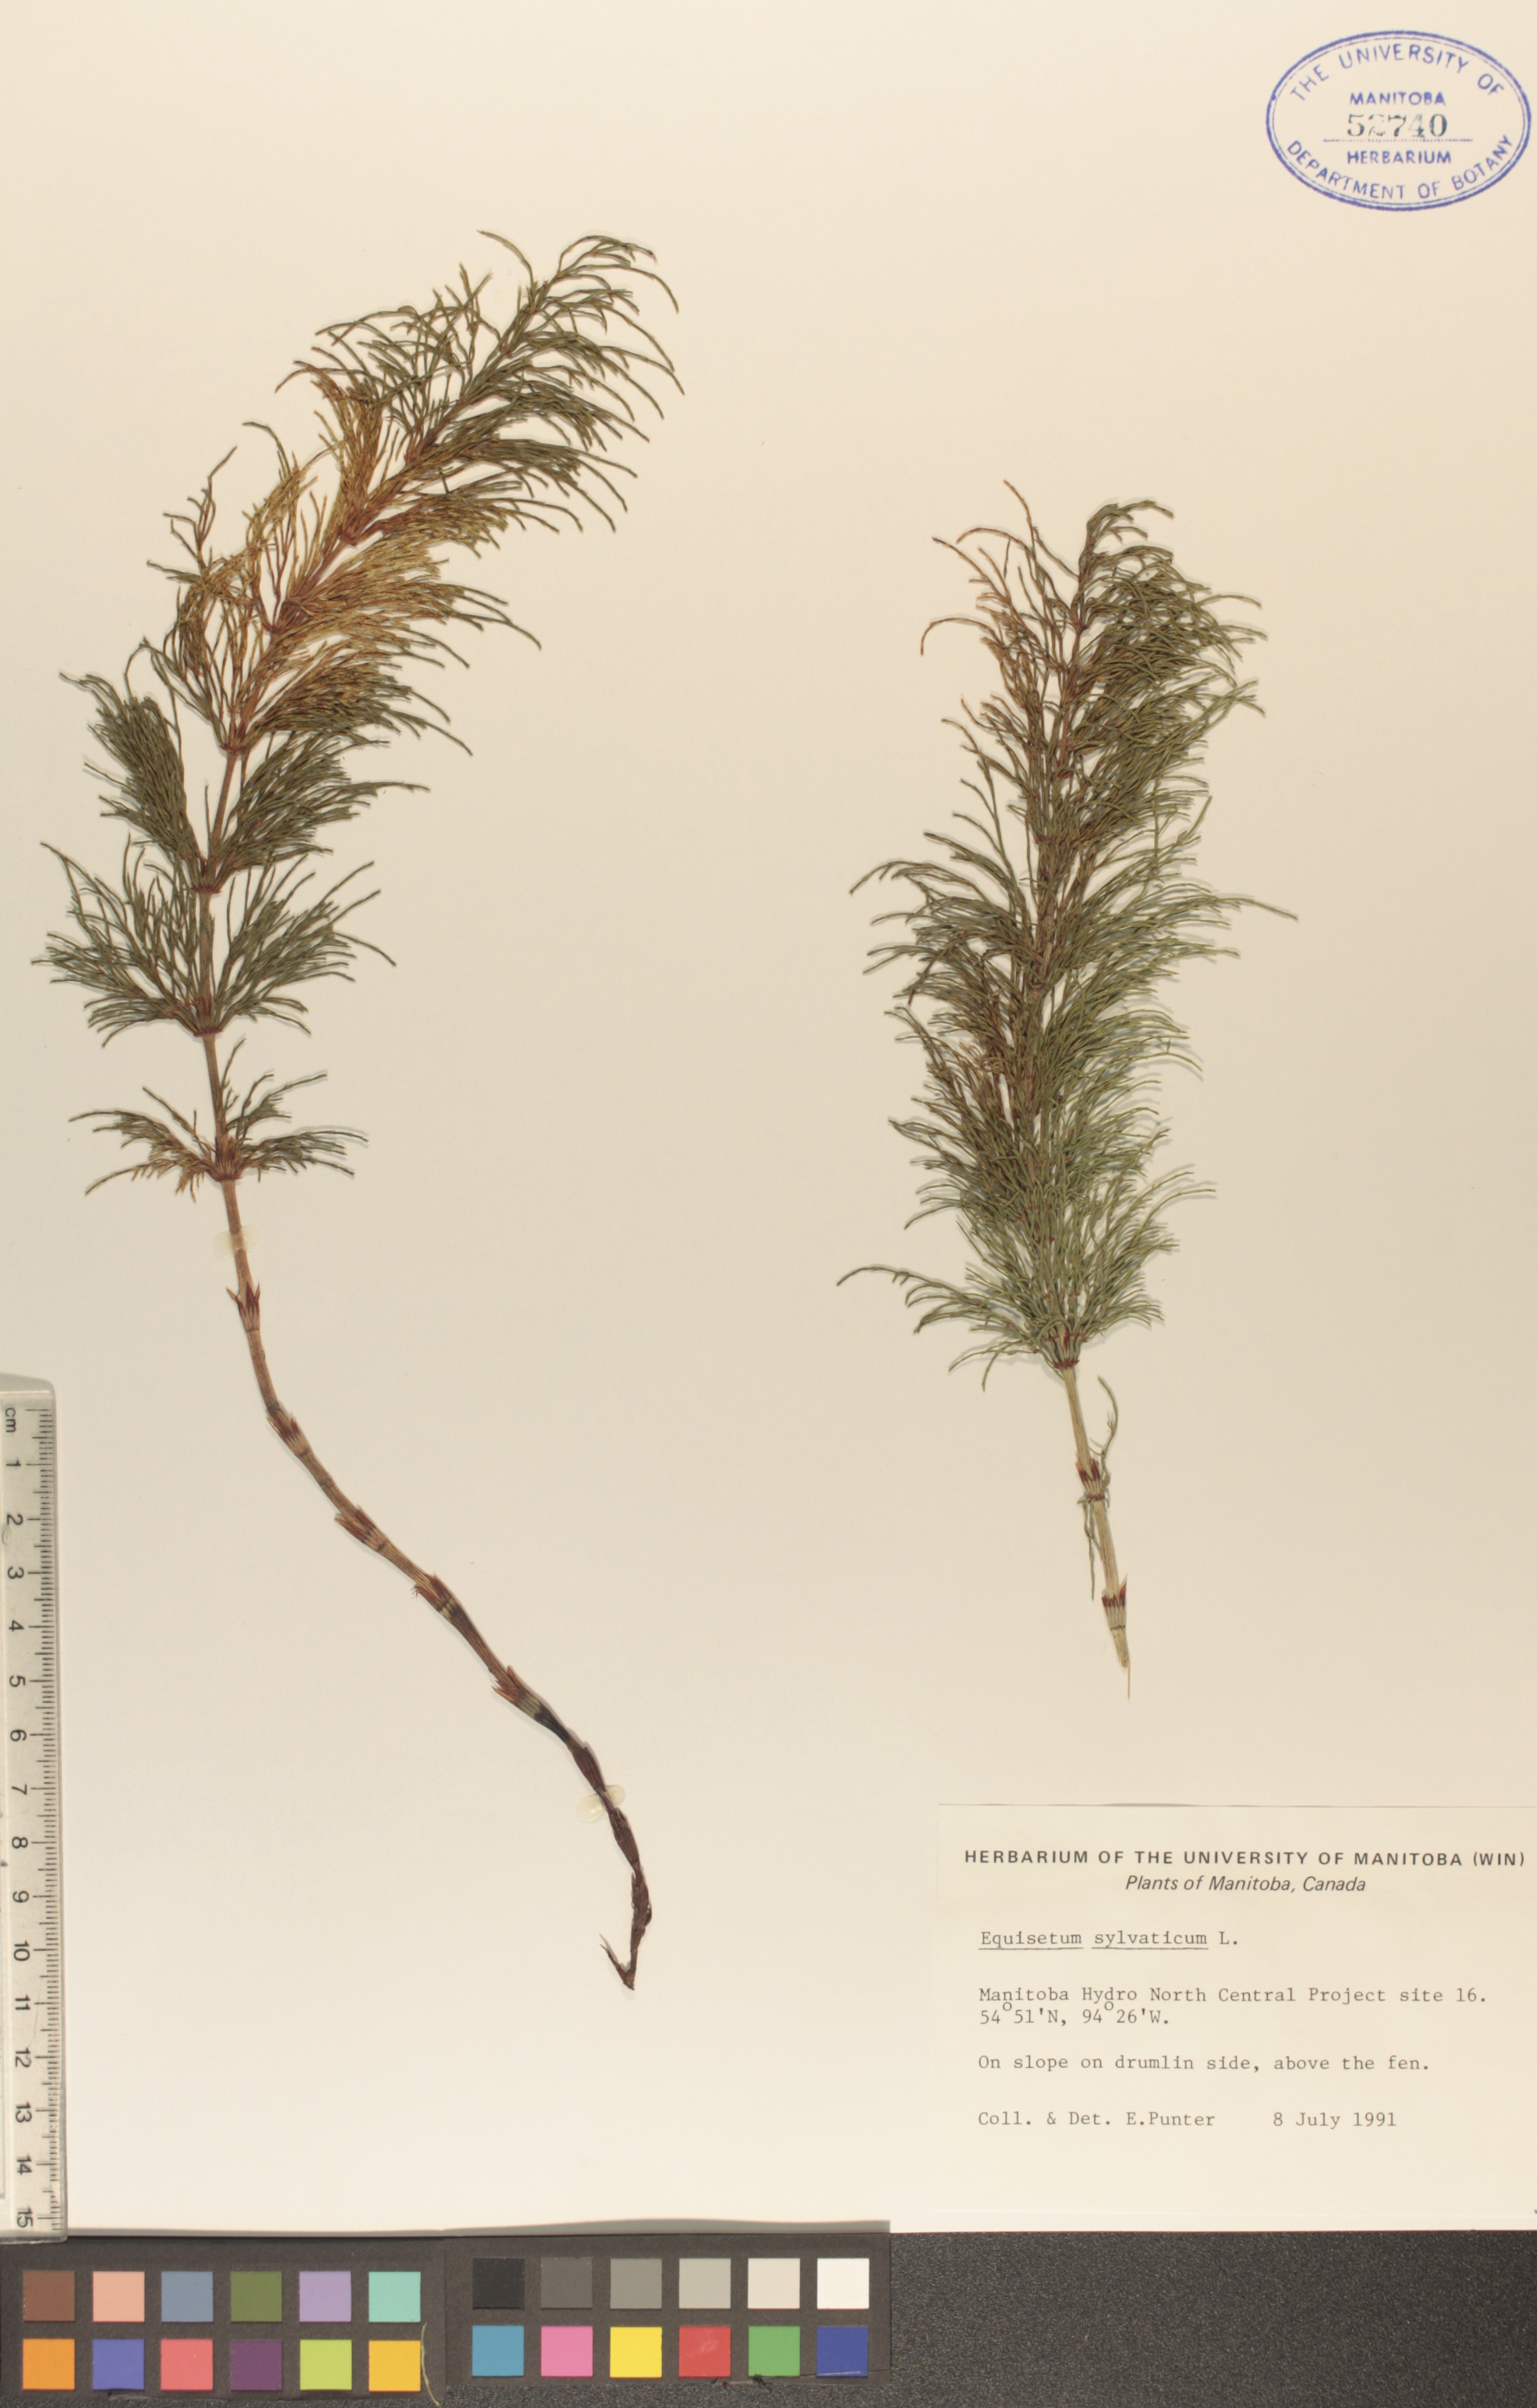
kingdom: Plantae
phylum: Tracheophyta
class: Polypodiopsida
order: Equisetales
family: Equisetaceae
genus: Equisetum
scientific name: Equisetum sylvaticum
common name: Wood horsetail
